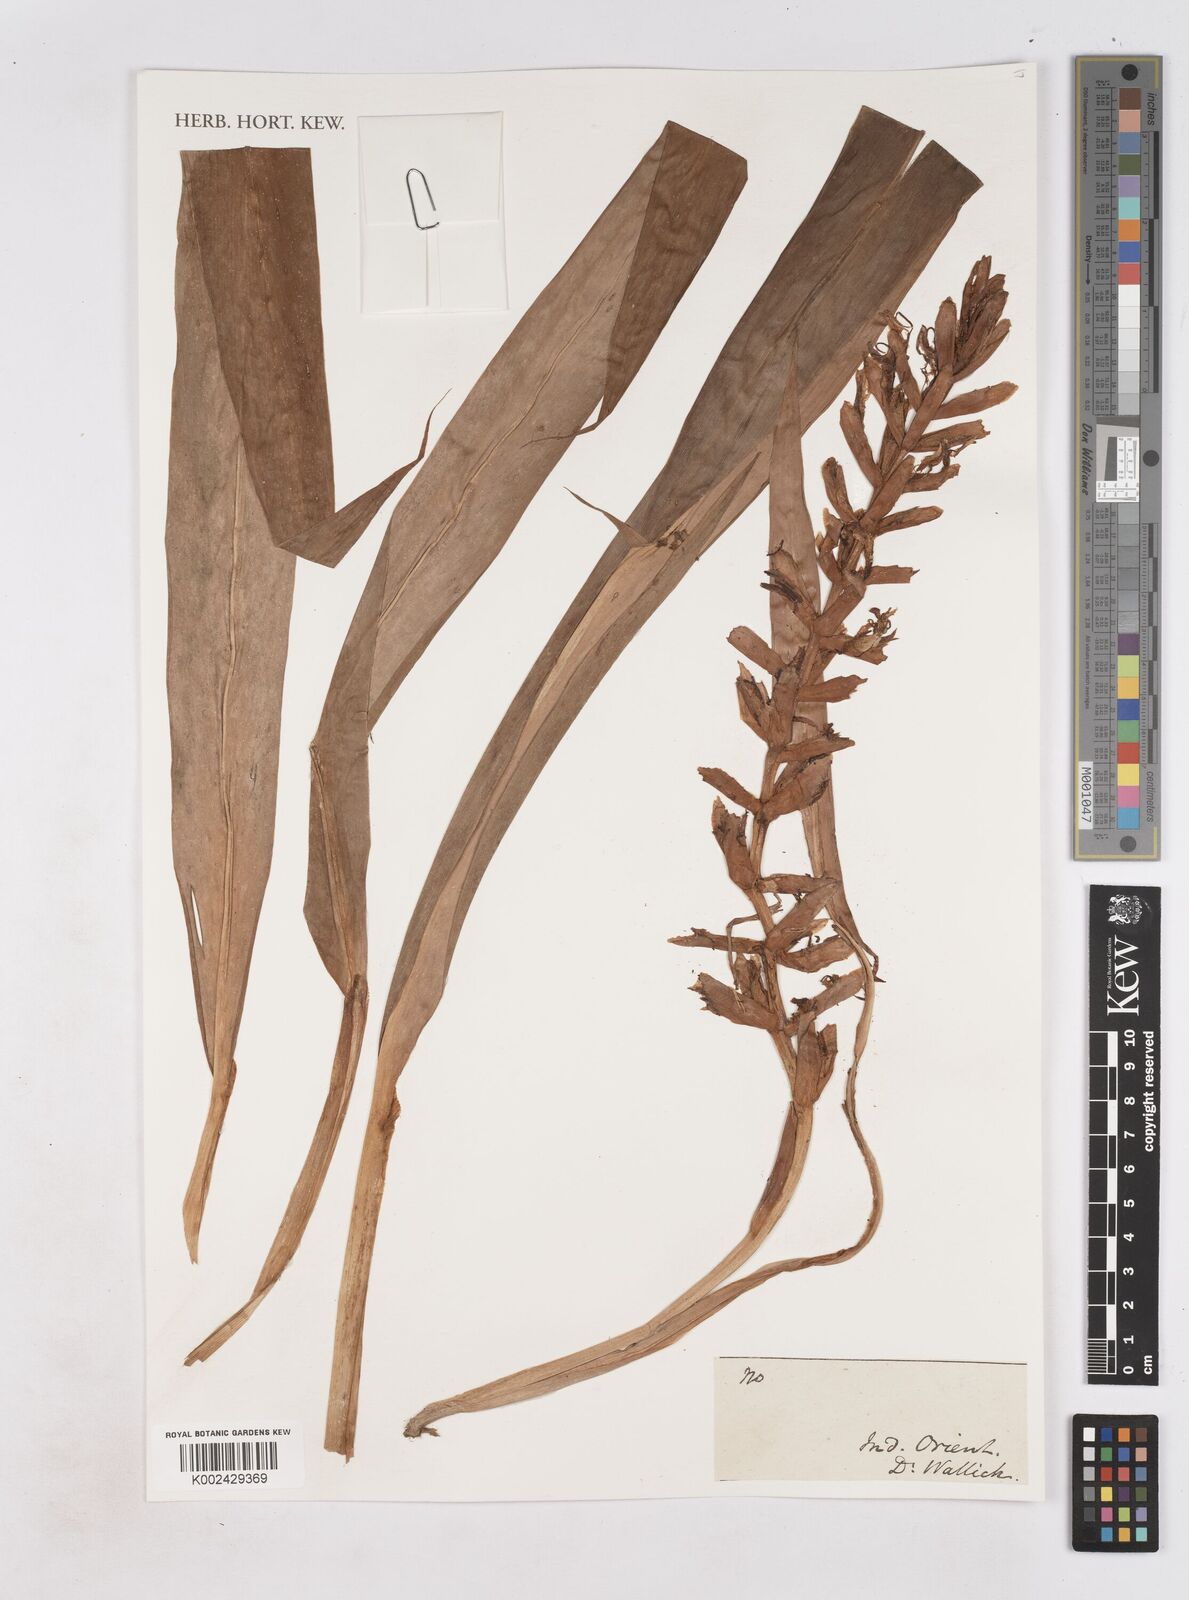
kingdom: Plantae
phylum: Tracheophyta
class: Liliopsida
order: Zingiberales
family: Zingiberaceae
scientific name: Zingiberaceae
